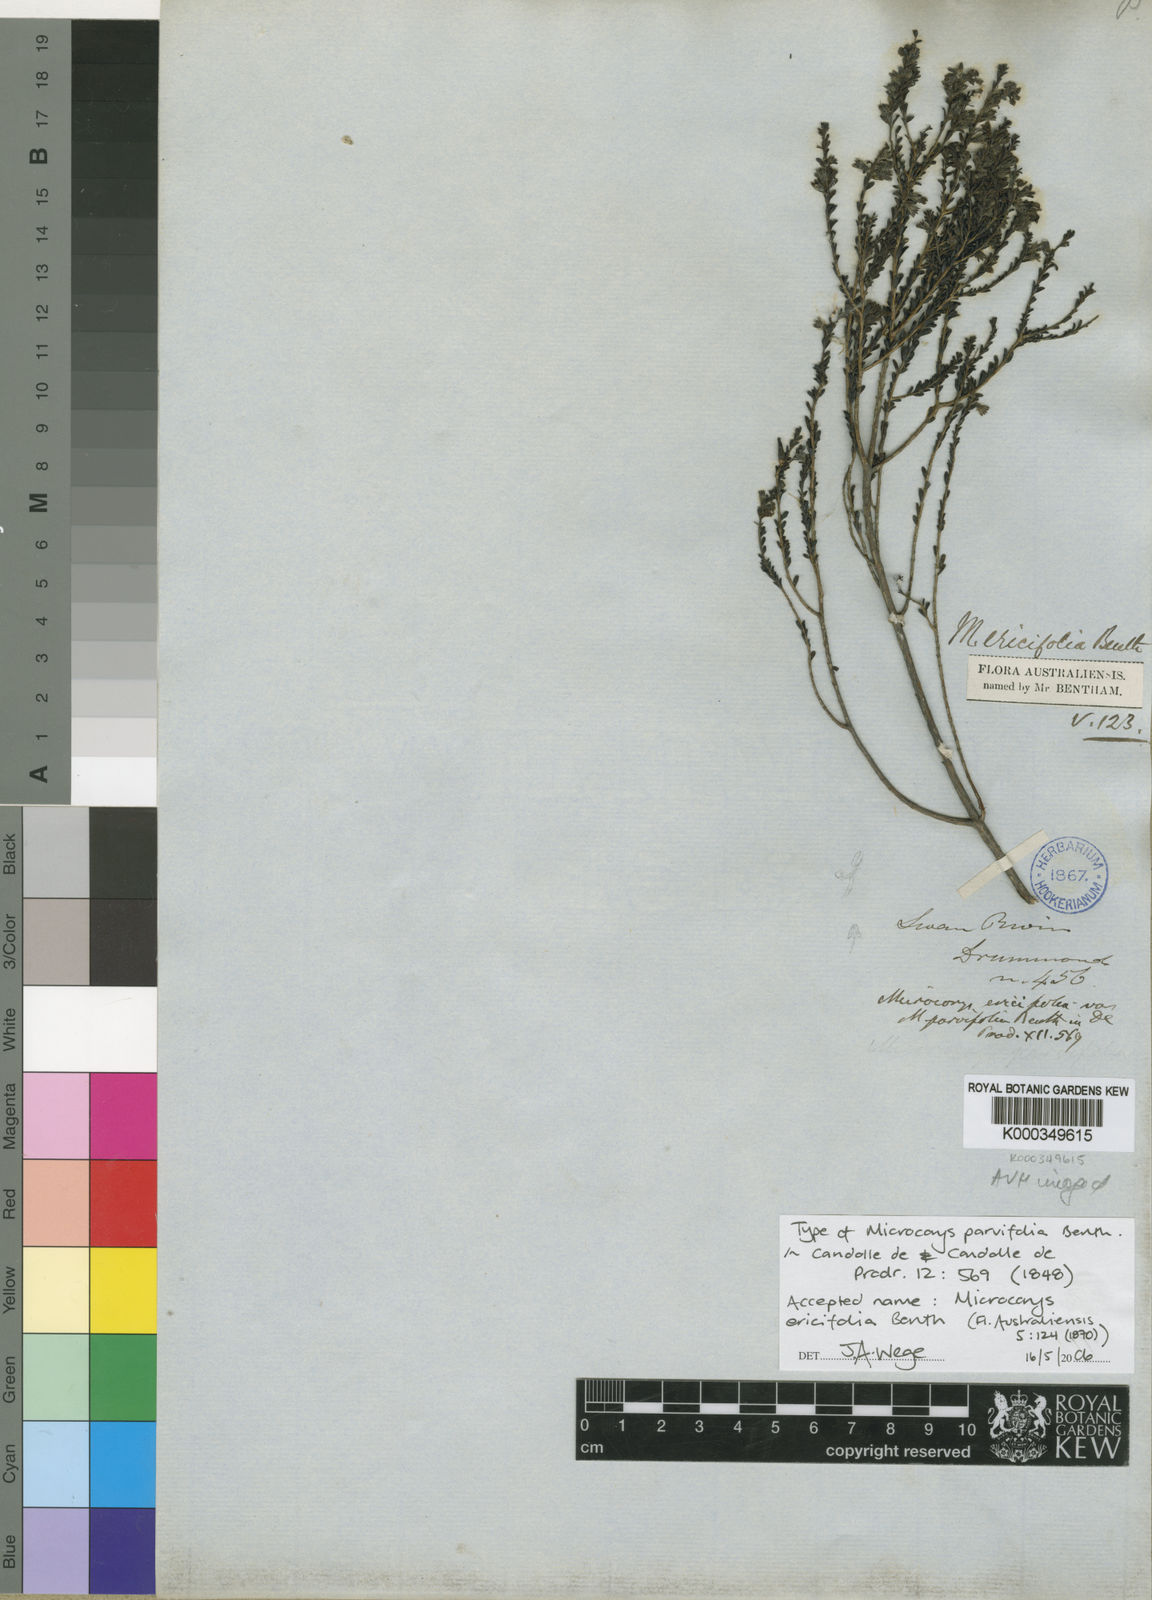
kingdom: Plantae
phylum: Tracheophyta
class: Magnoliopsida
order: Lamiales
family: Lamiaceae
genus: Microcorys
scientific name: Microcorys ericifolia
